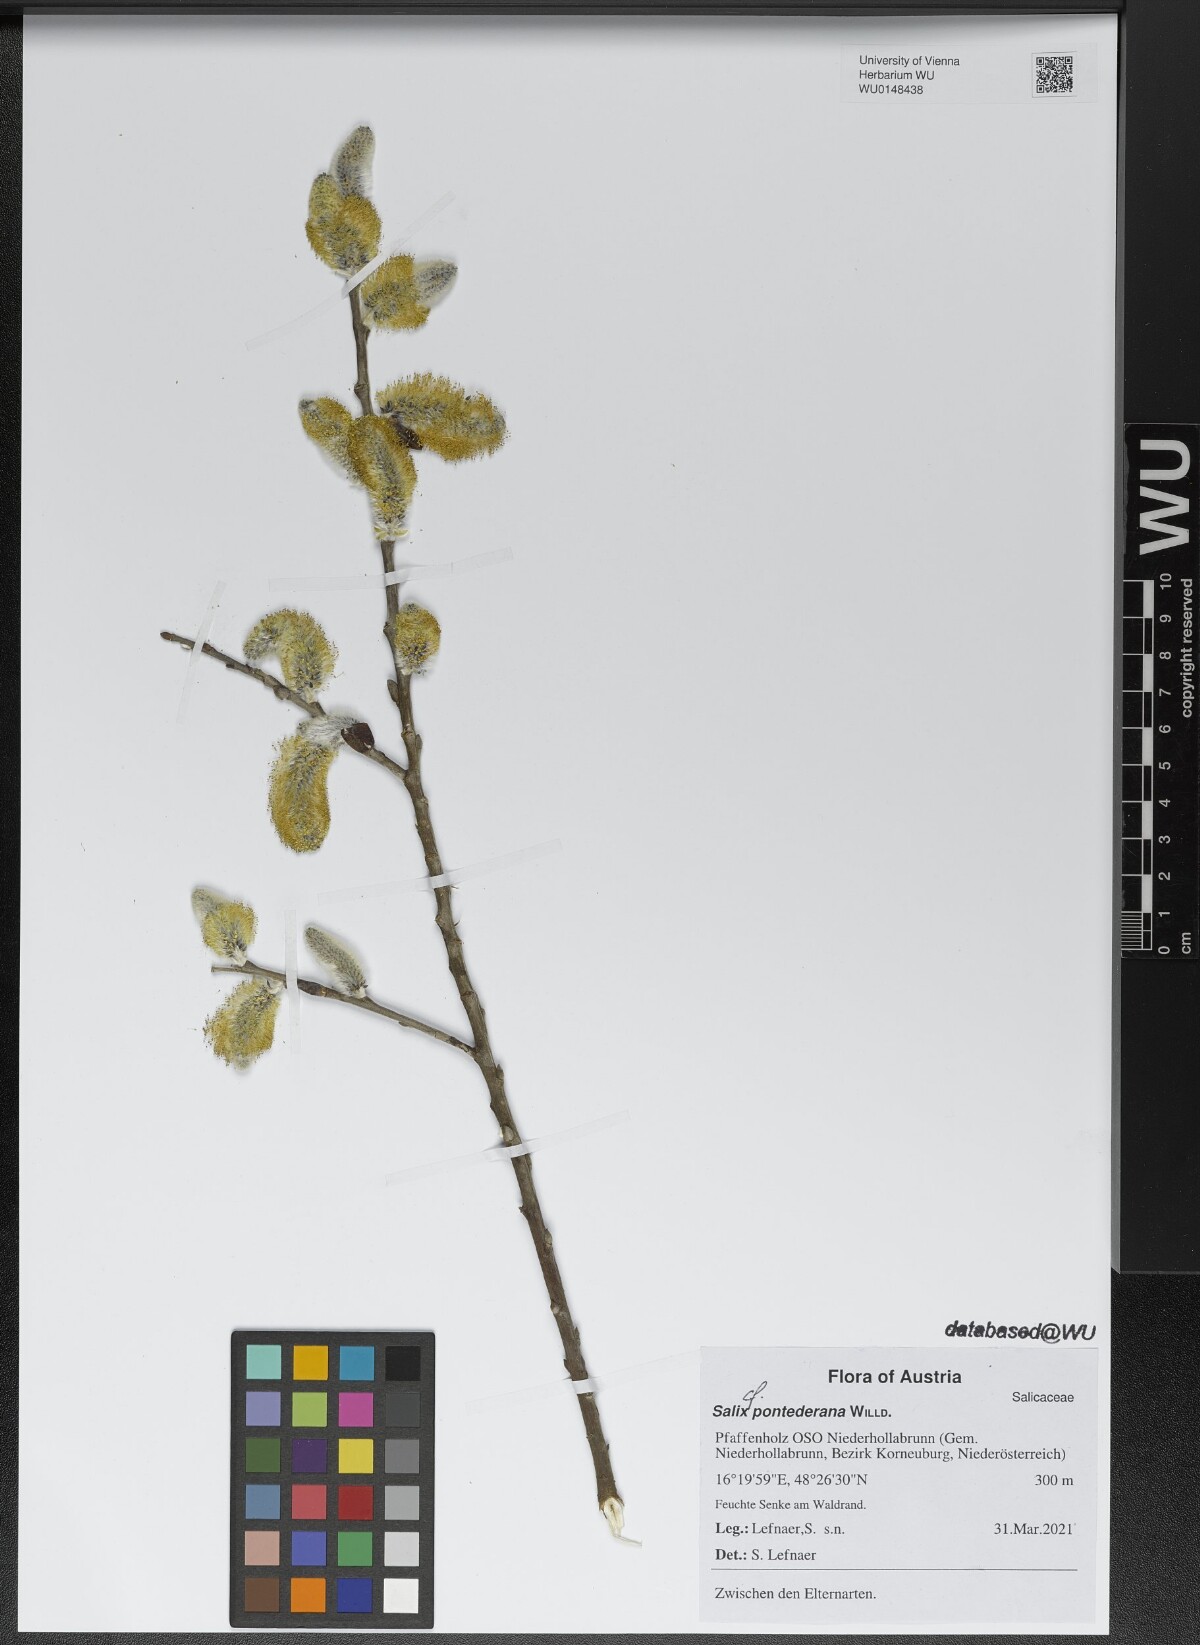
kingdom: Plantae
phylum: Tracheophyta
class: Magnoliopsida
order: Malpighiales
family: Salicaceae
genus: Salix
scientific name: Salix pontederana
